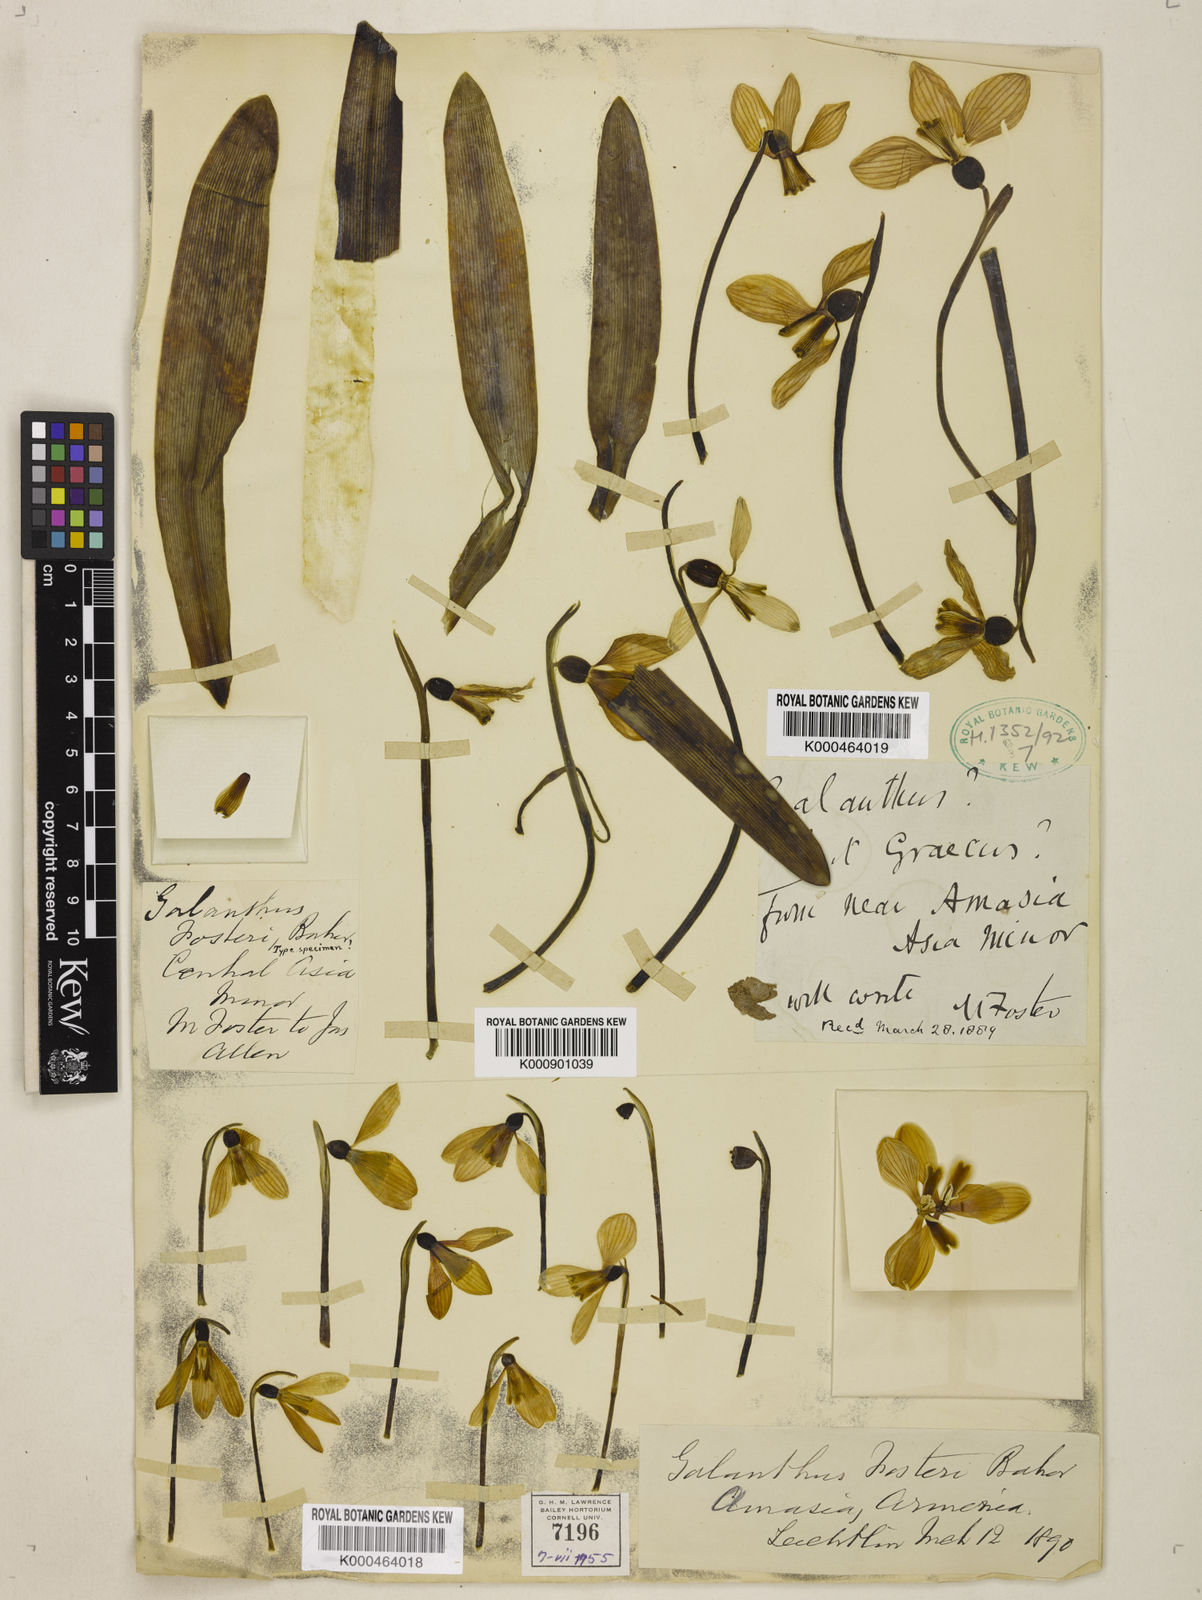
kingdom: Plantae
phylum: Tracheophyta
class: Liliopsida
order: Asparagales
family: Amaryllidaceae
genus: Galanthus
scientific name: Galanthus fosteri
